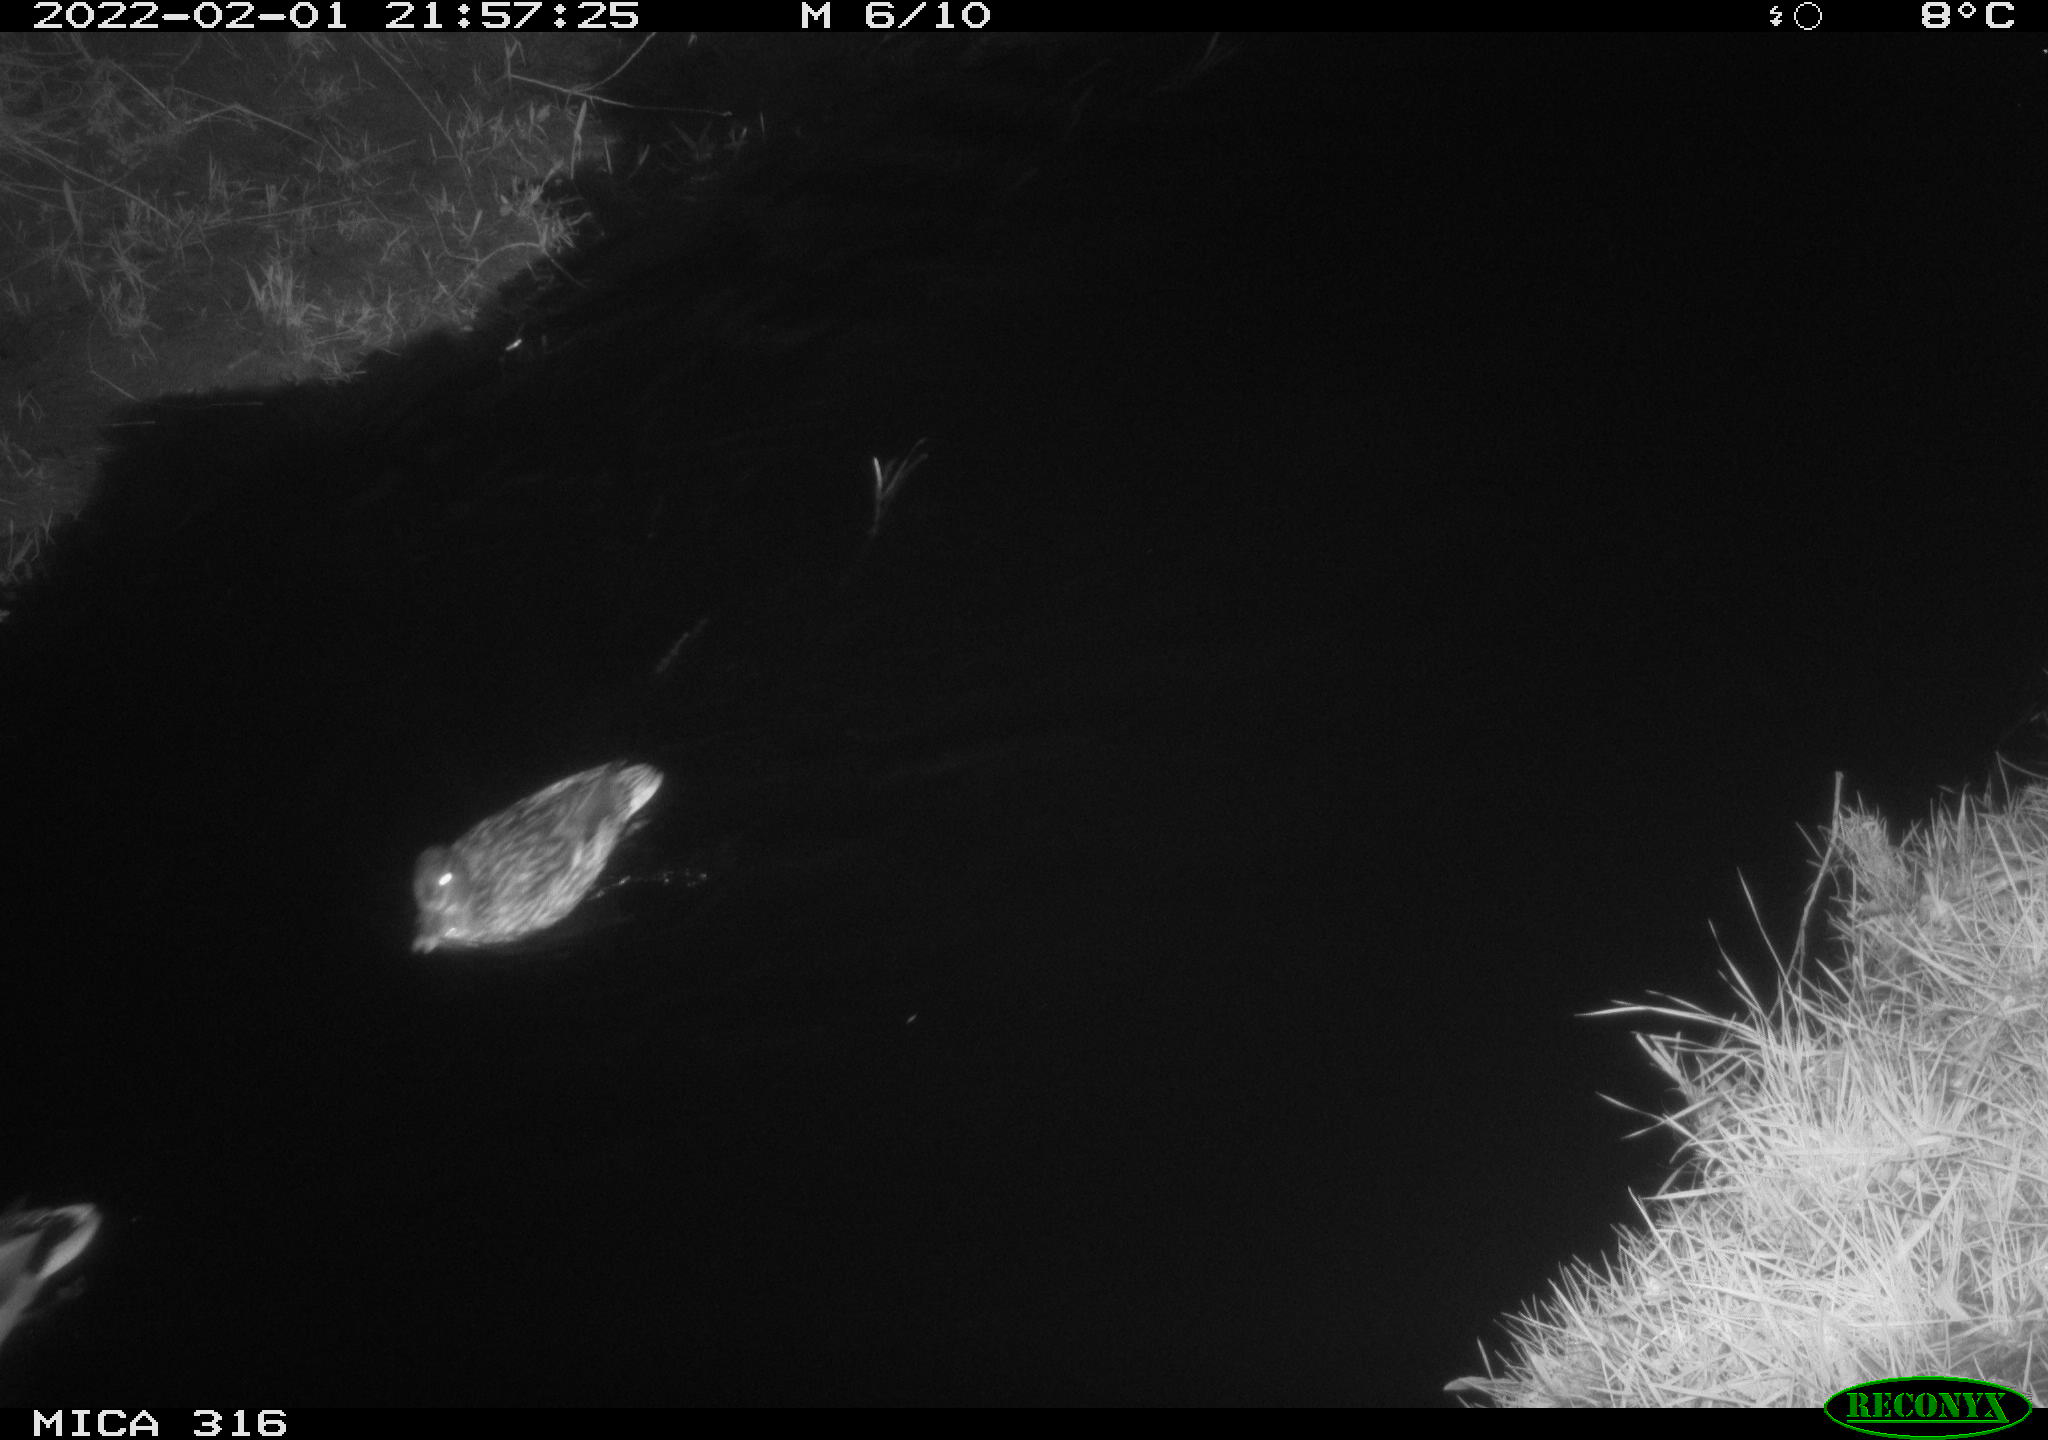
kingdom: Animalia
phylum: Chordata
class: Aves
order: Anseriformes
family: Anatidae
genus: Anas
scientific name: Anas platyrhynchos
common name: Mallard
